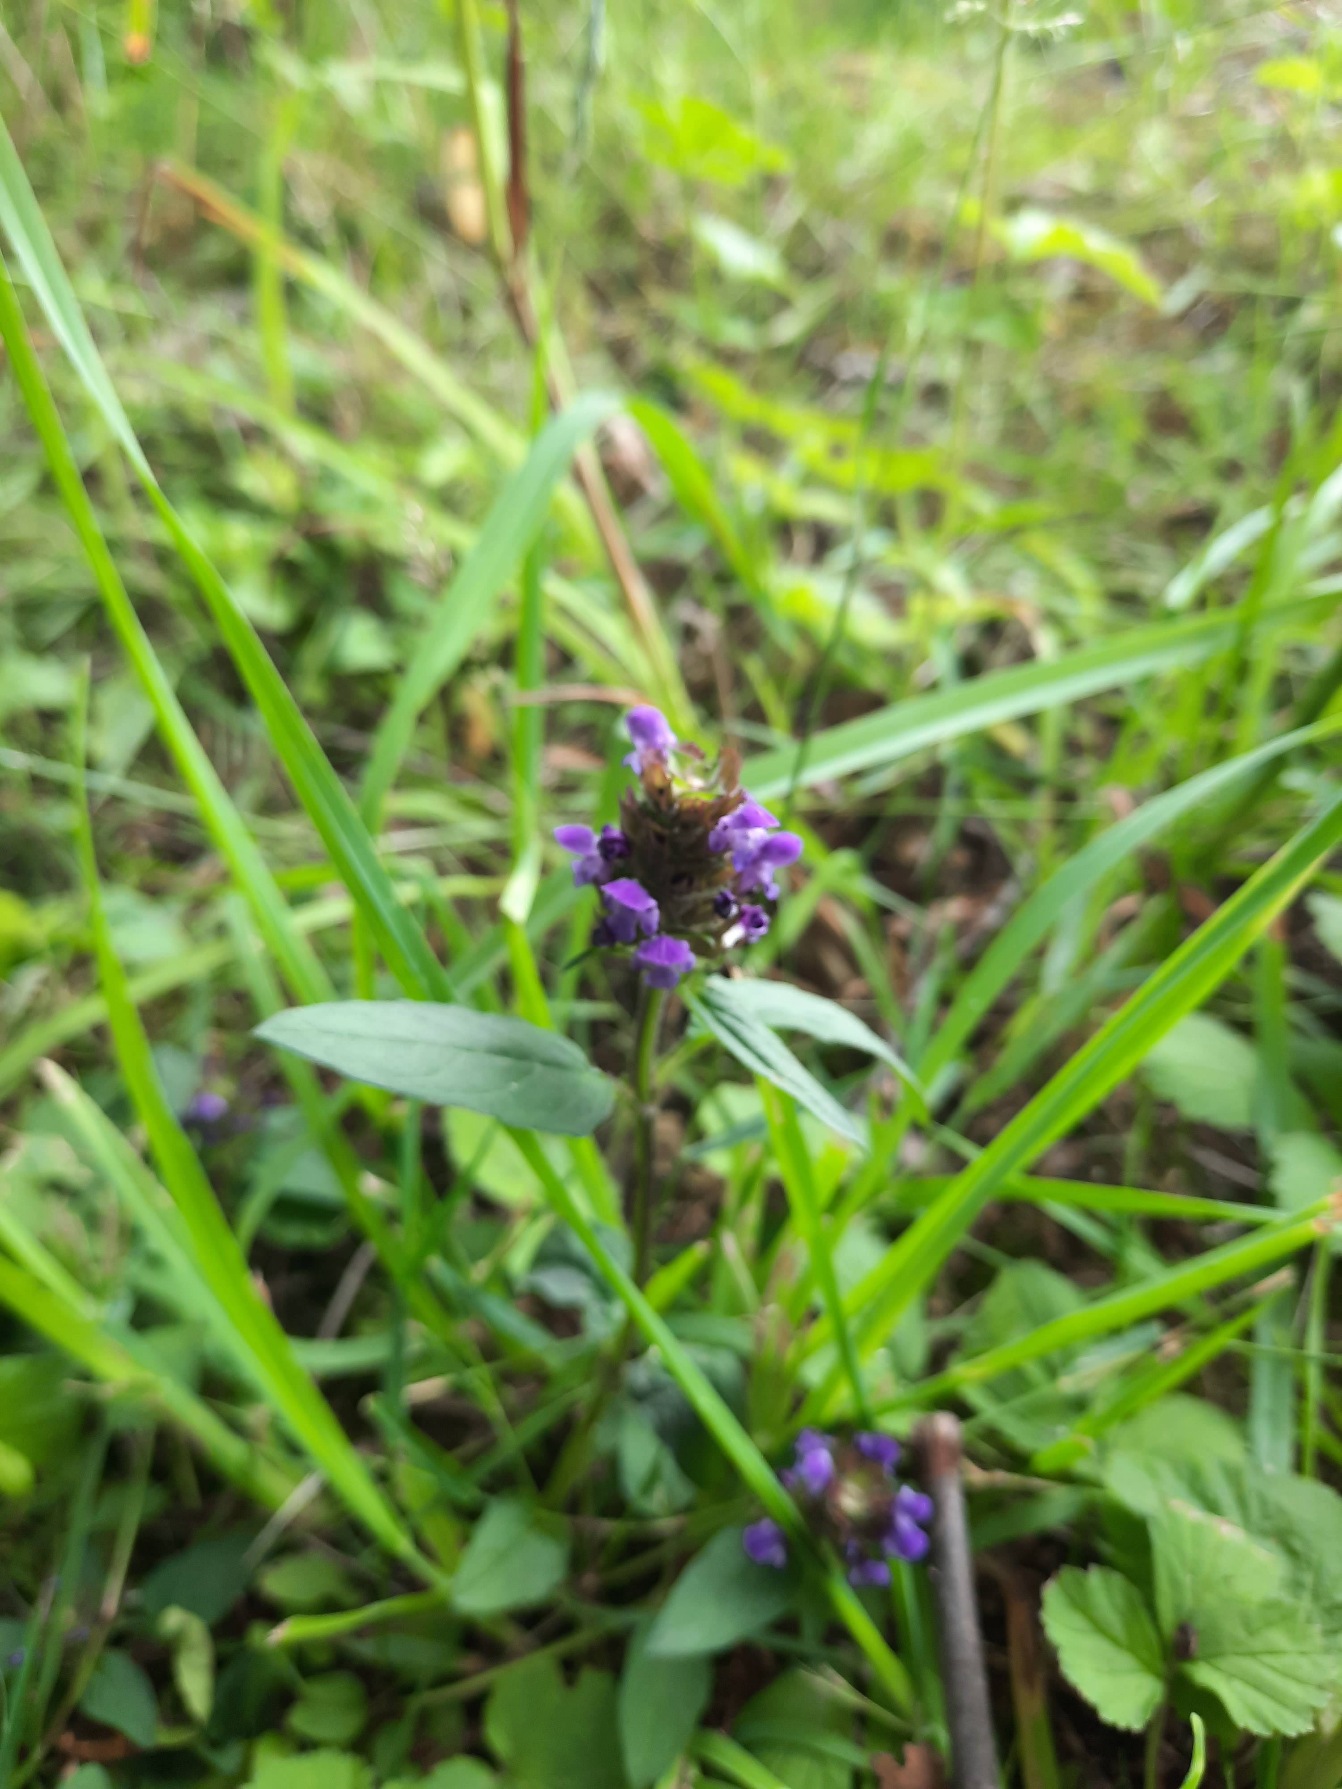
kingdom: Plantae
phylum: Tracheophyta
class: Magnoliopsida
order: Lamiales
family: Lamiaceae
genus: Prunella
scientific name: Prunella vulgaris
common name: Almindelig brunelle
